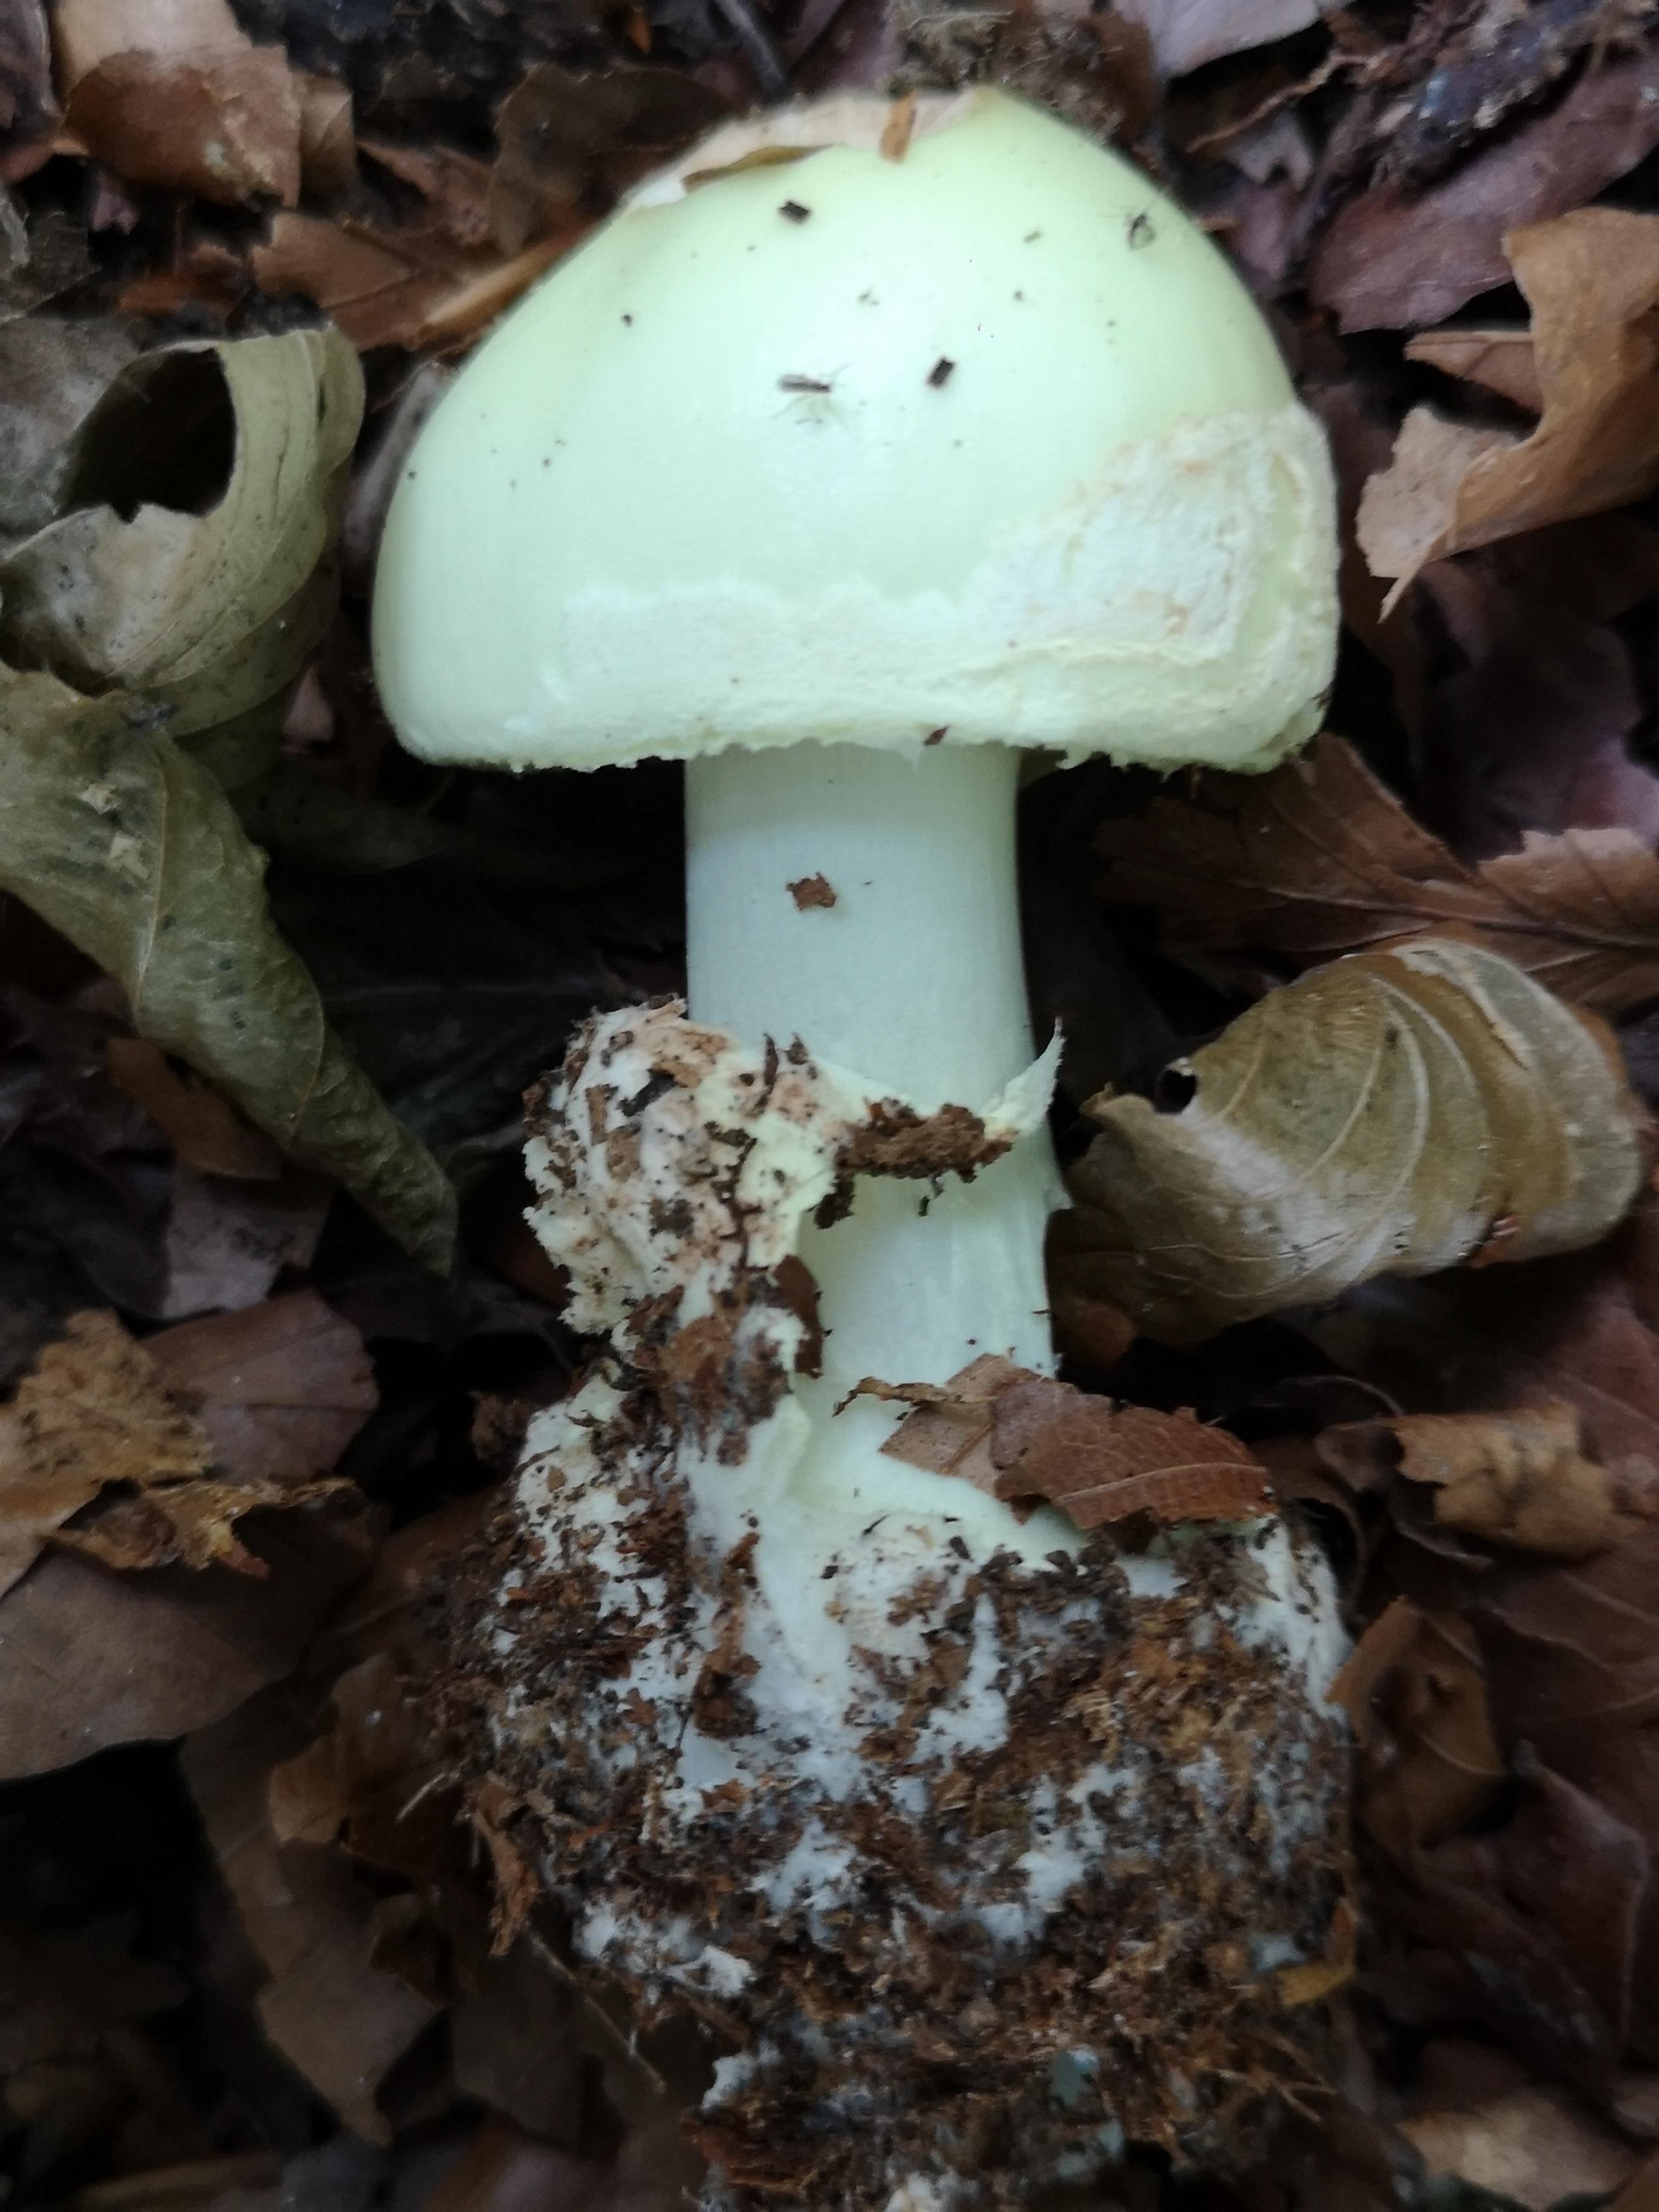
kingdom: Fungi
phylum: Basidiomycota
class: Agaricomycetes
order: Agaricales
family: Amanitaceae
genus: Amanita
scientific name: Amanita citrina
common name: kugleknoldet fluesvamp
